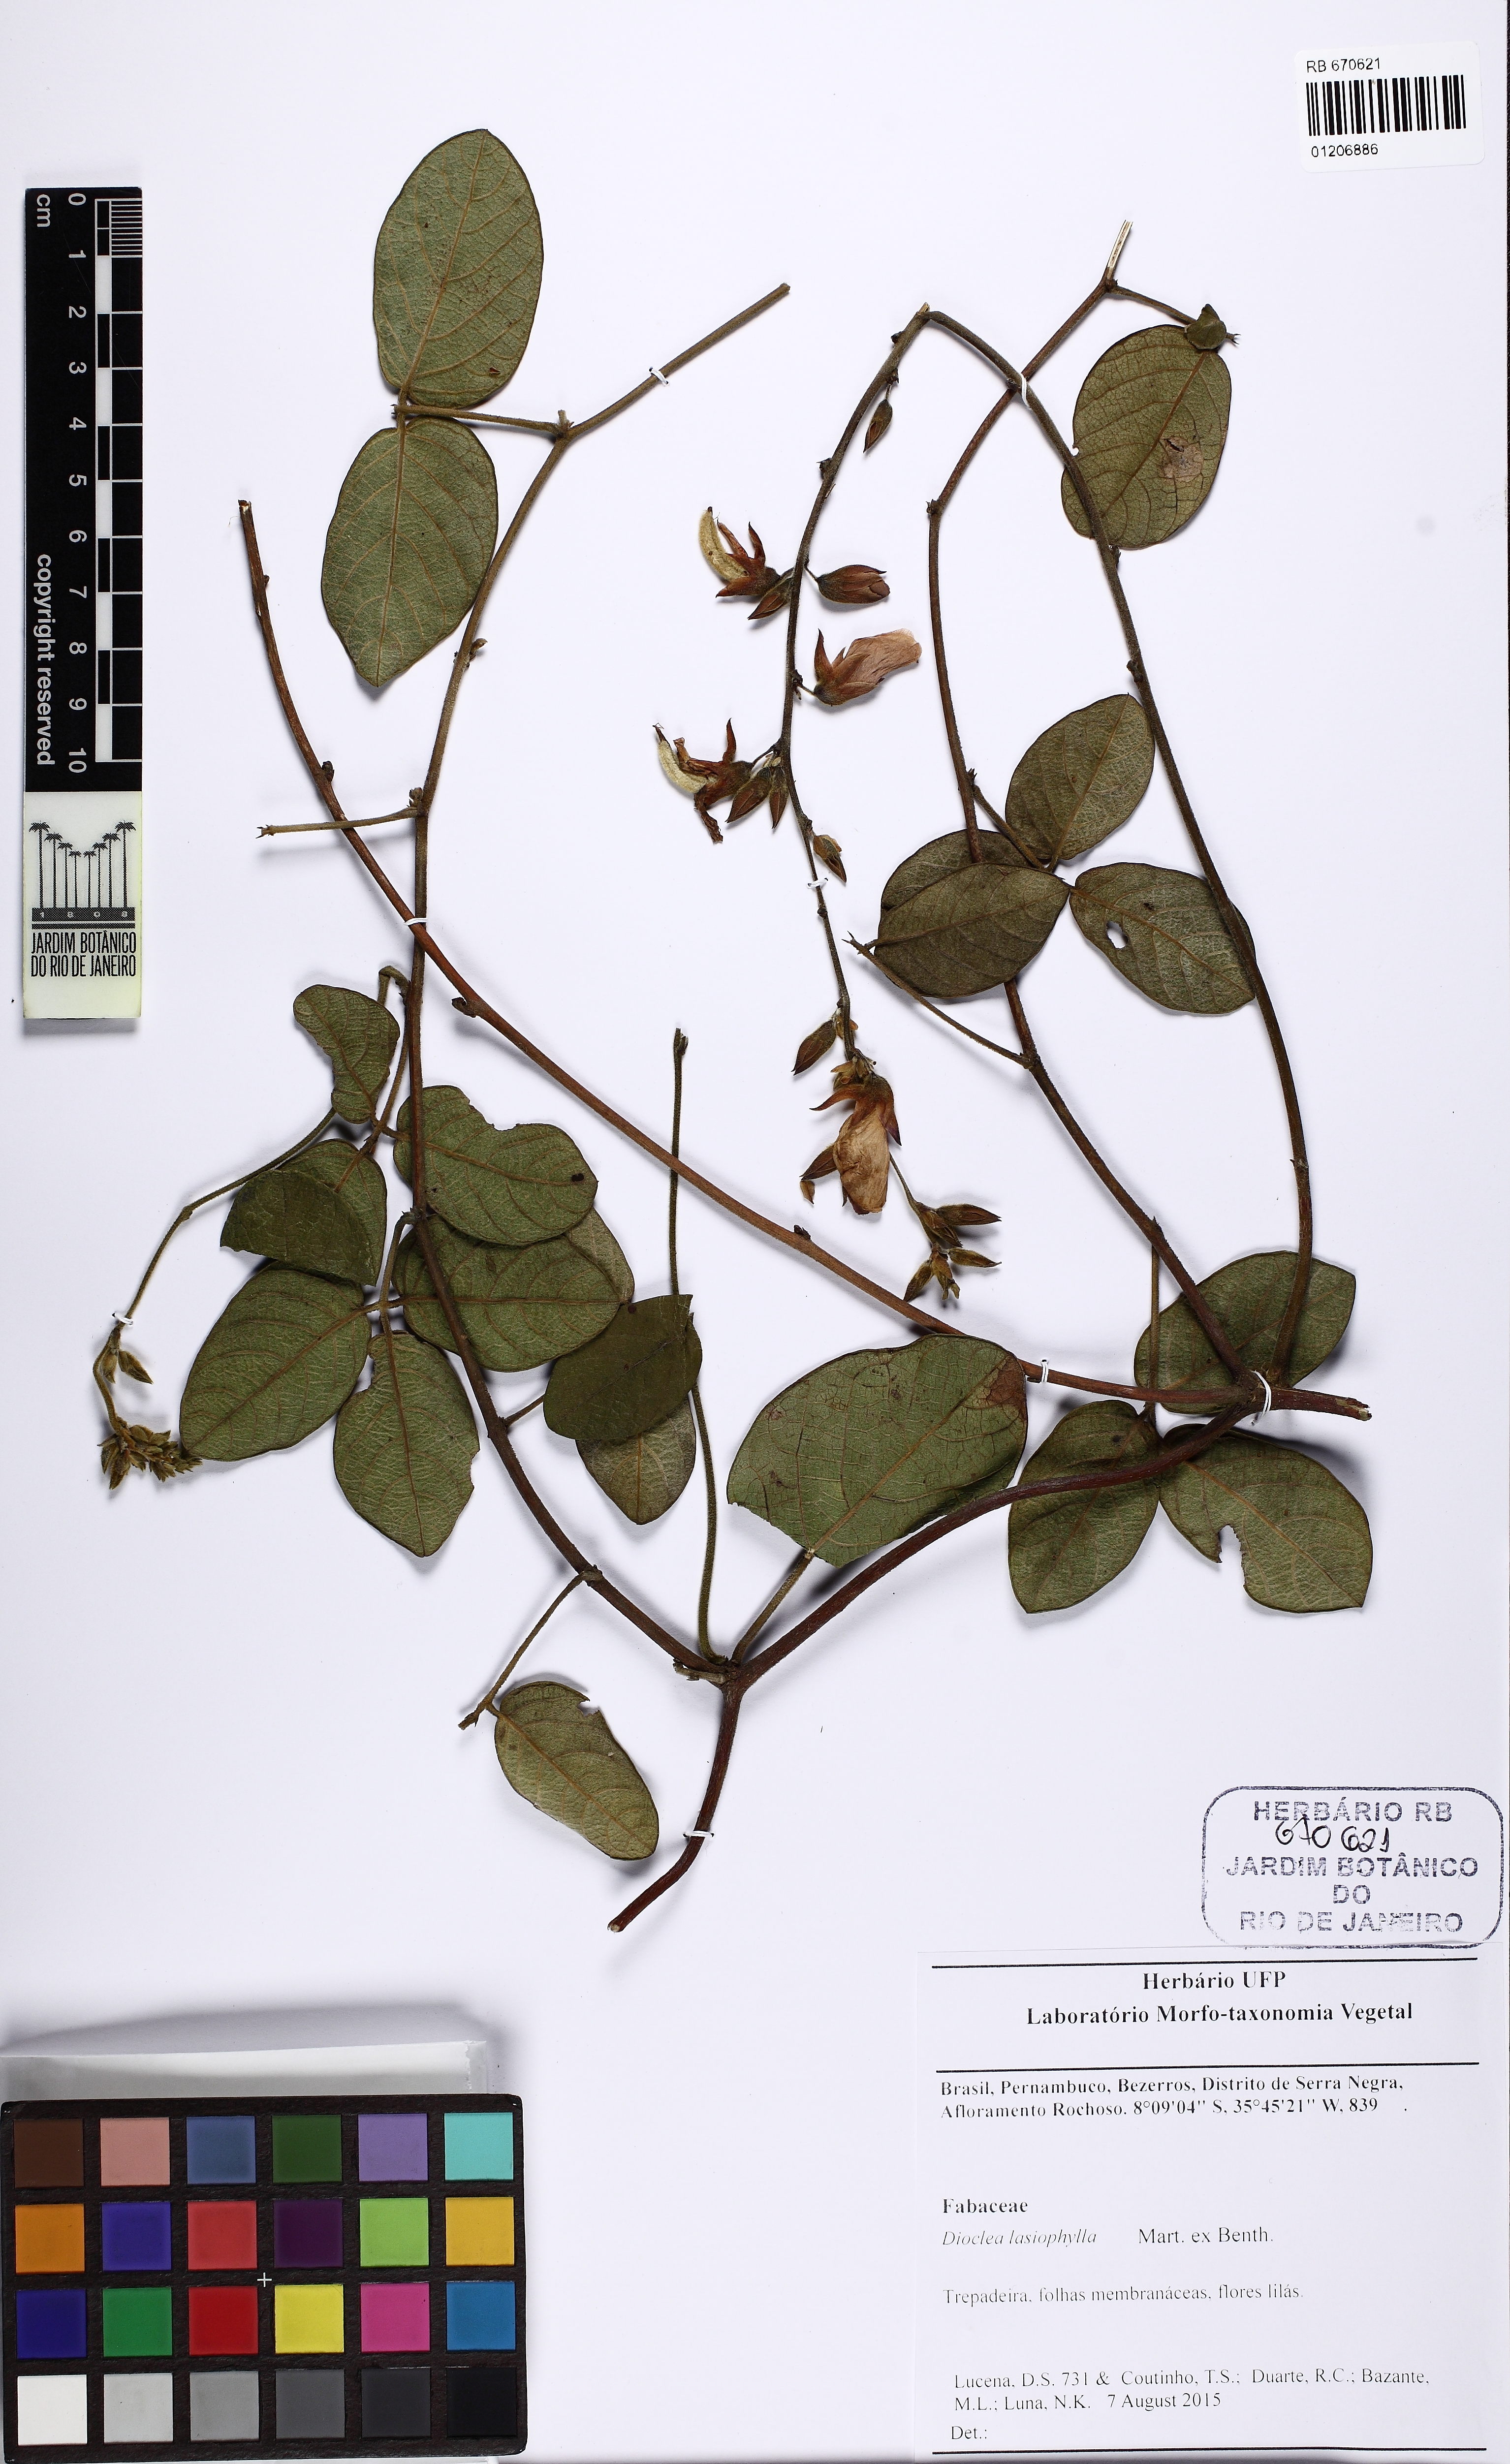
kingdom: Plantae
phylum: Tracheophyta
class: Magnoliopsida
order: Fabales
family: Fabaceae
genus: Dioclea
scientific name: Dioclea lasiophylla
